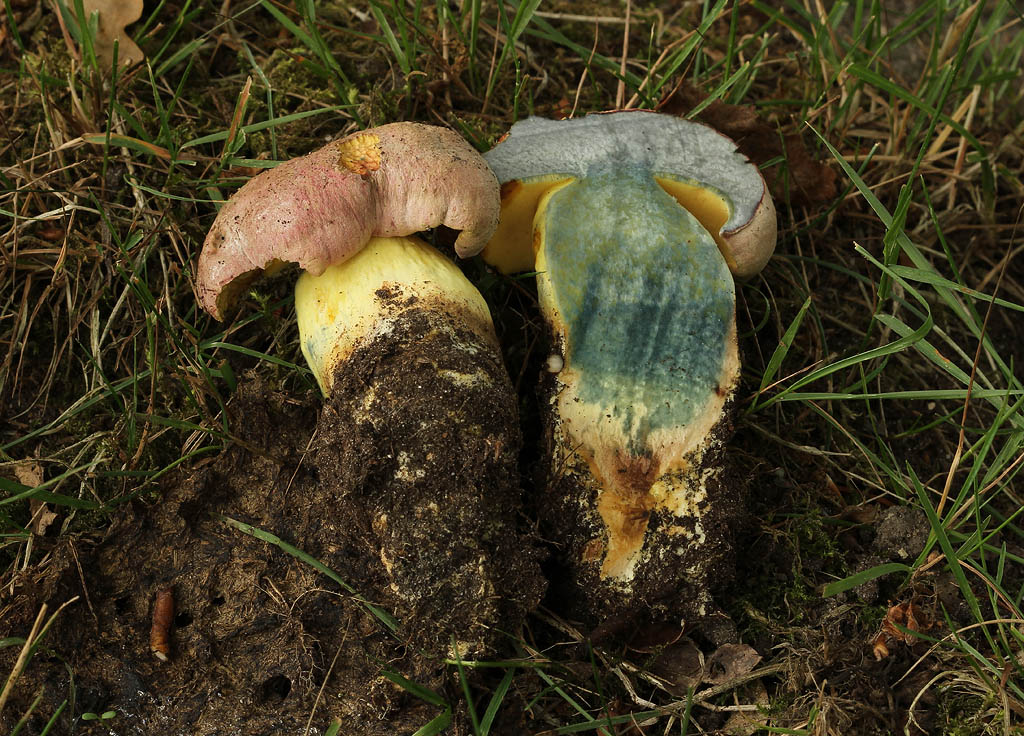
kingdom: Fungi
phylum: Basidiomycota
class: Agaricomycetes
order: Boletales
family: Boletaceae
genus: Caloboletus
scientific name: Caloboletus radicans
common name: rod-rørhat
